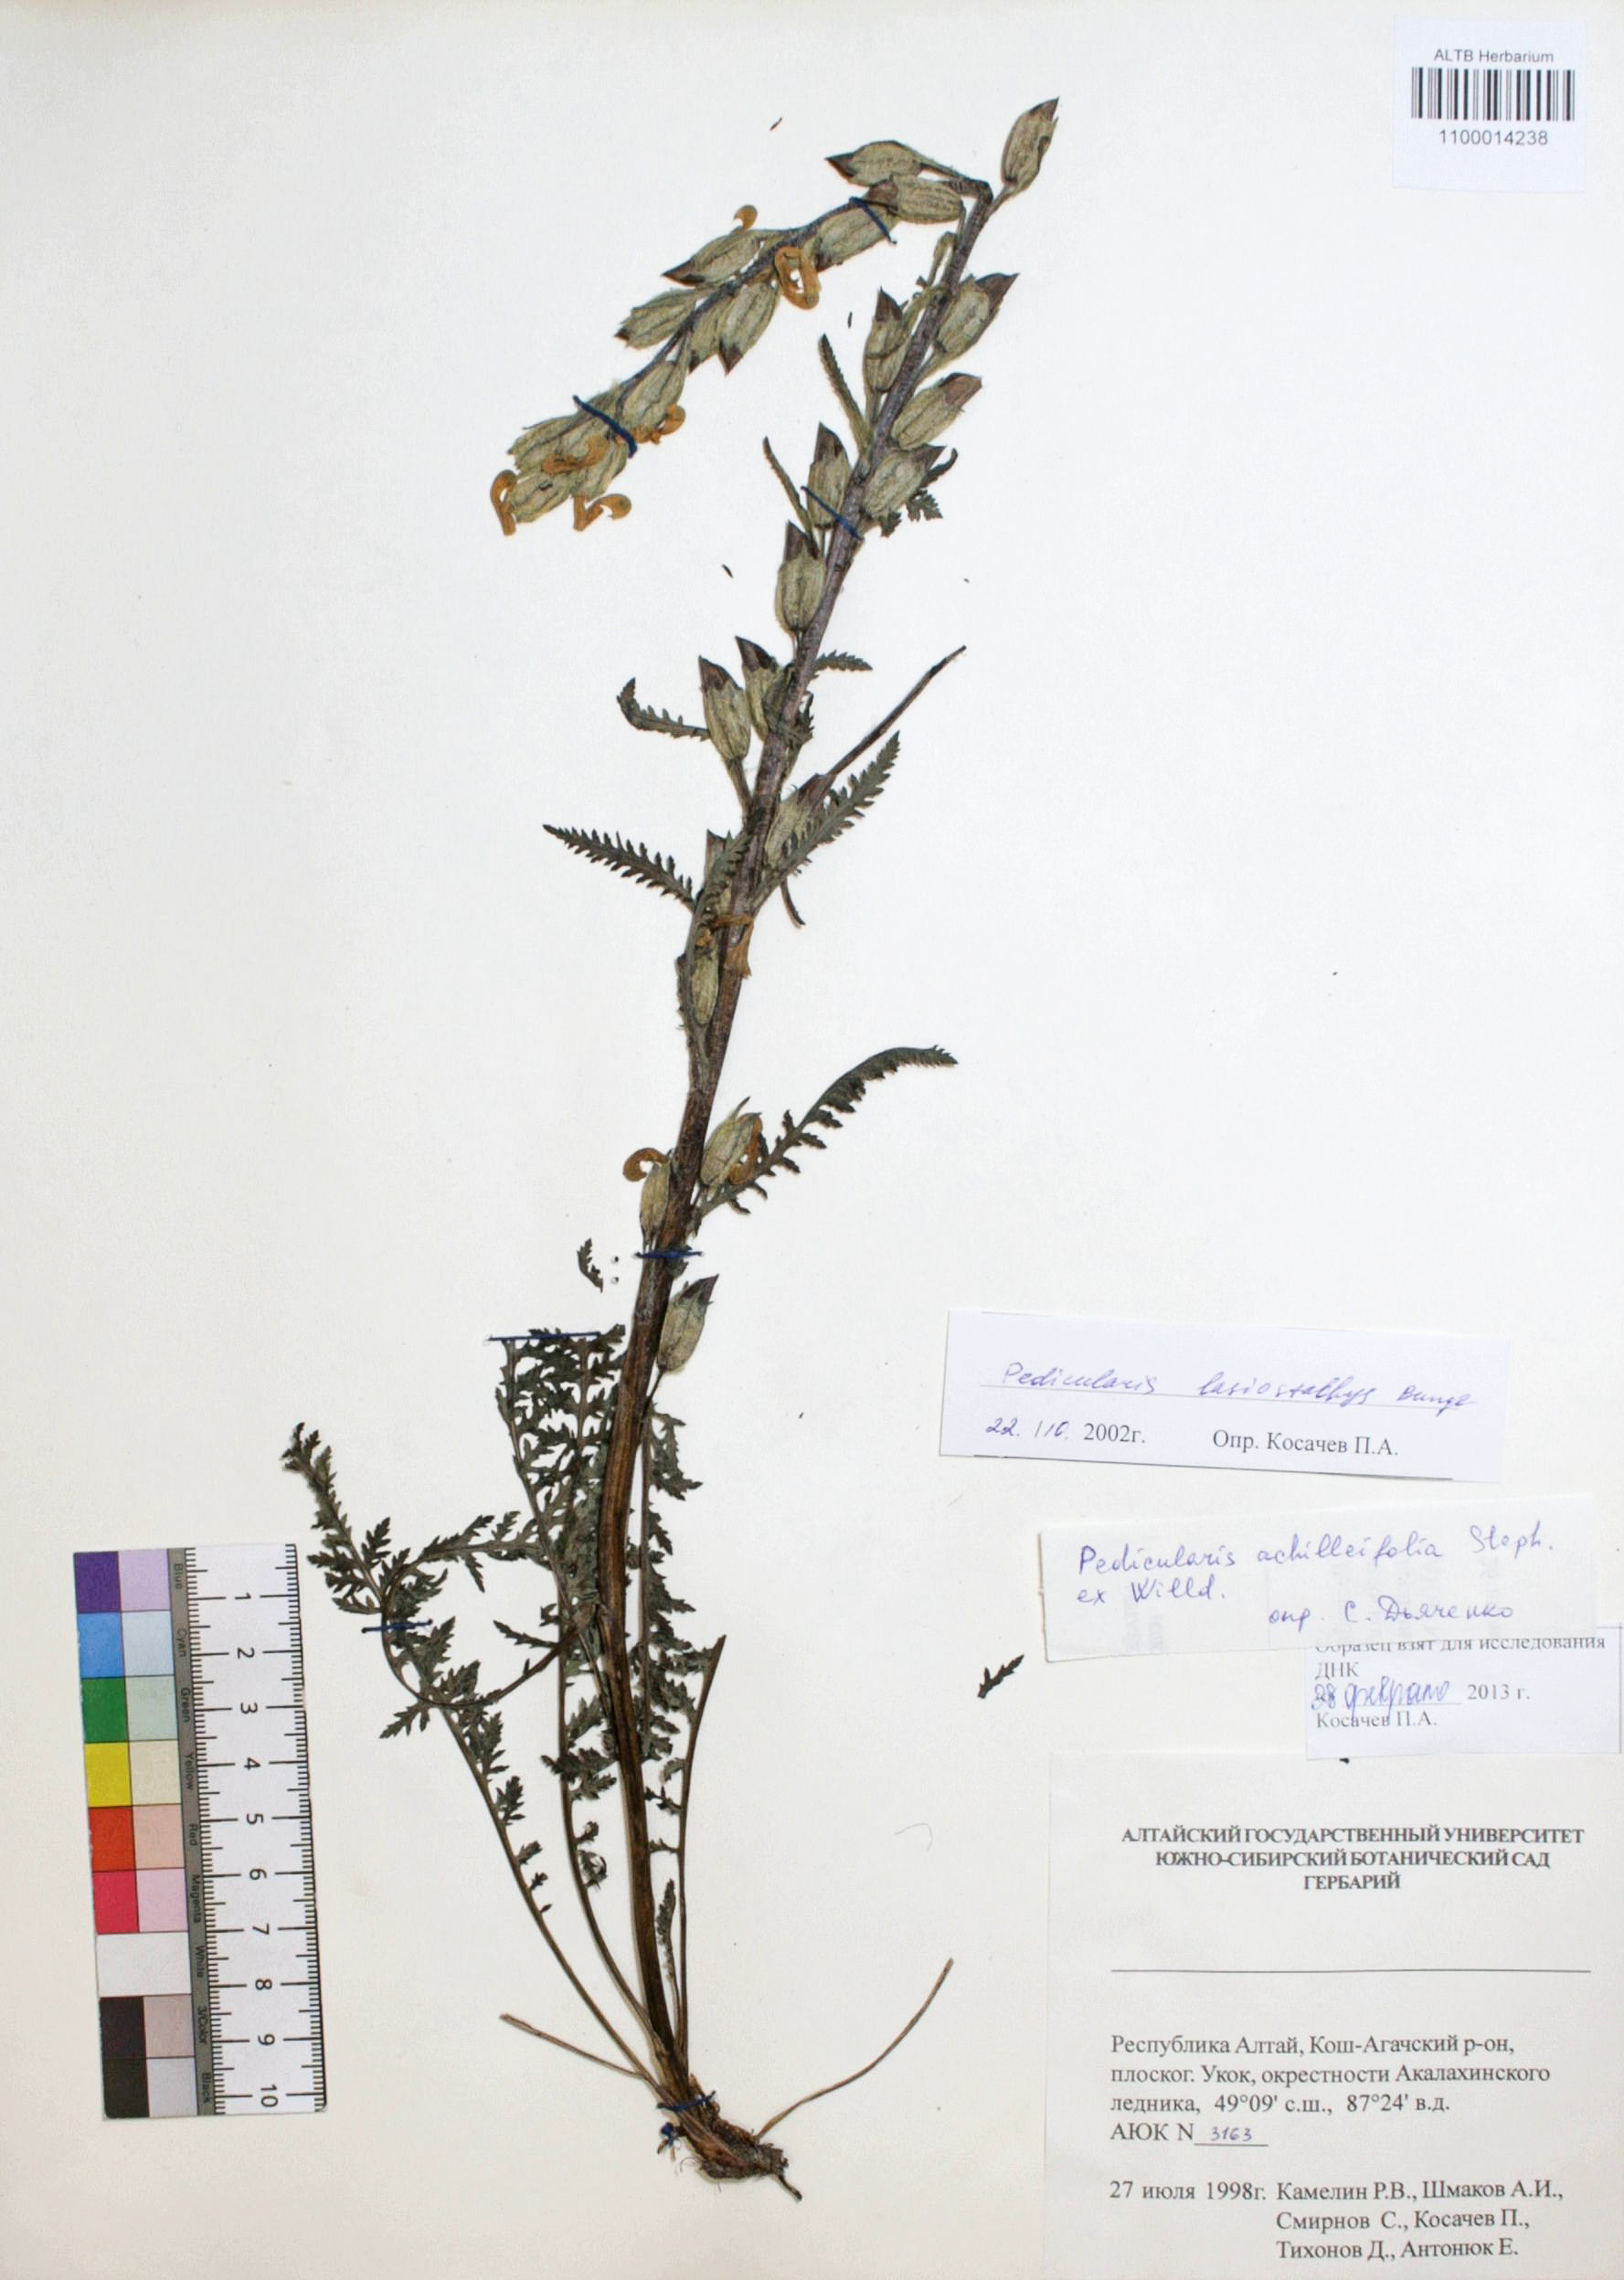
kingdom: Plantae
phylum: Tracheophyta
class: Magnoliopsida
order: Lamiales
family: Orobanchaceae
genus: Pedicularis
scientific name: Pedicularis lasiostachys
